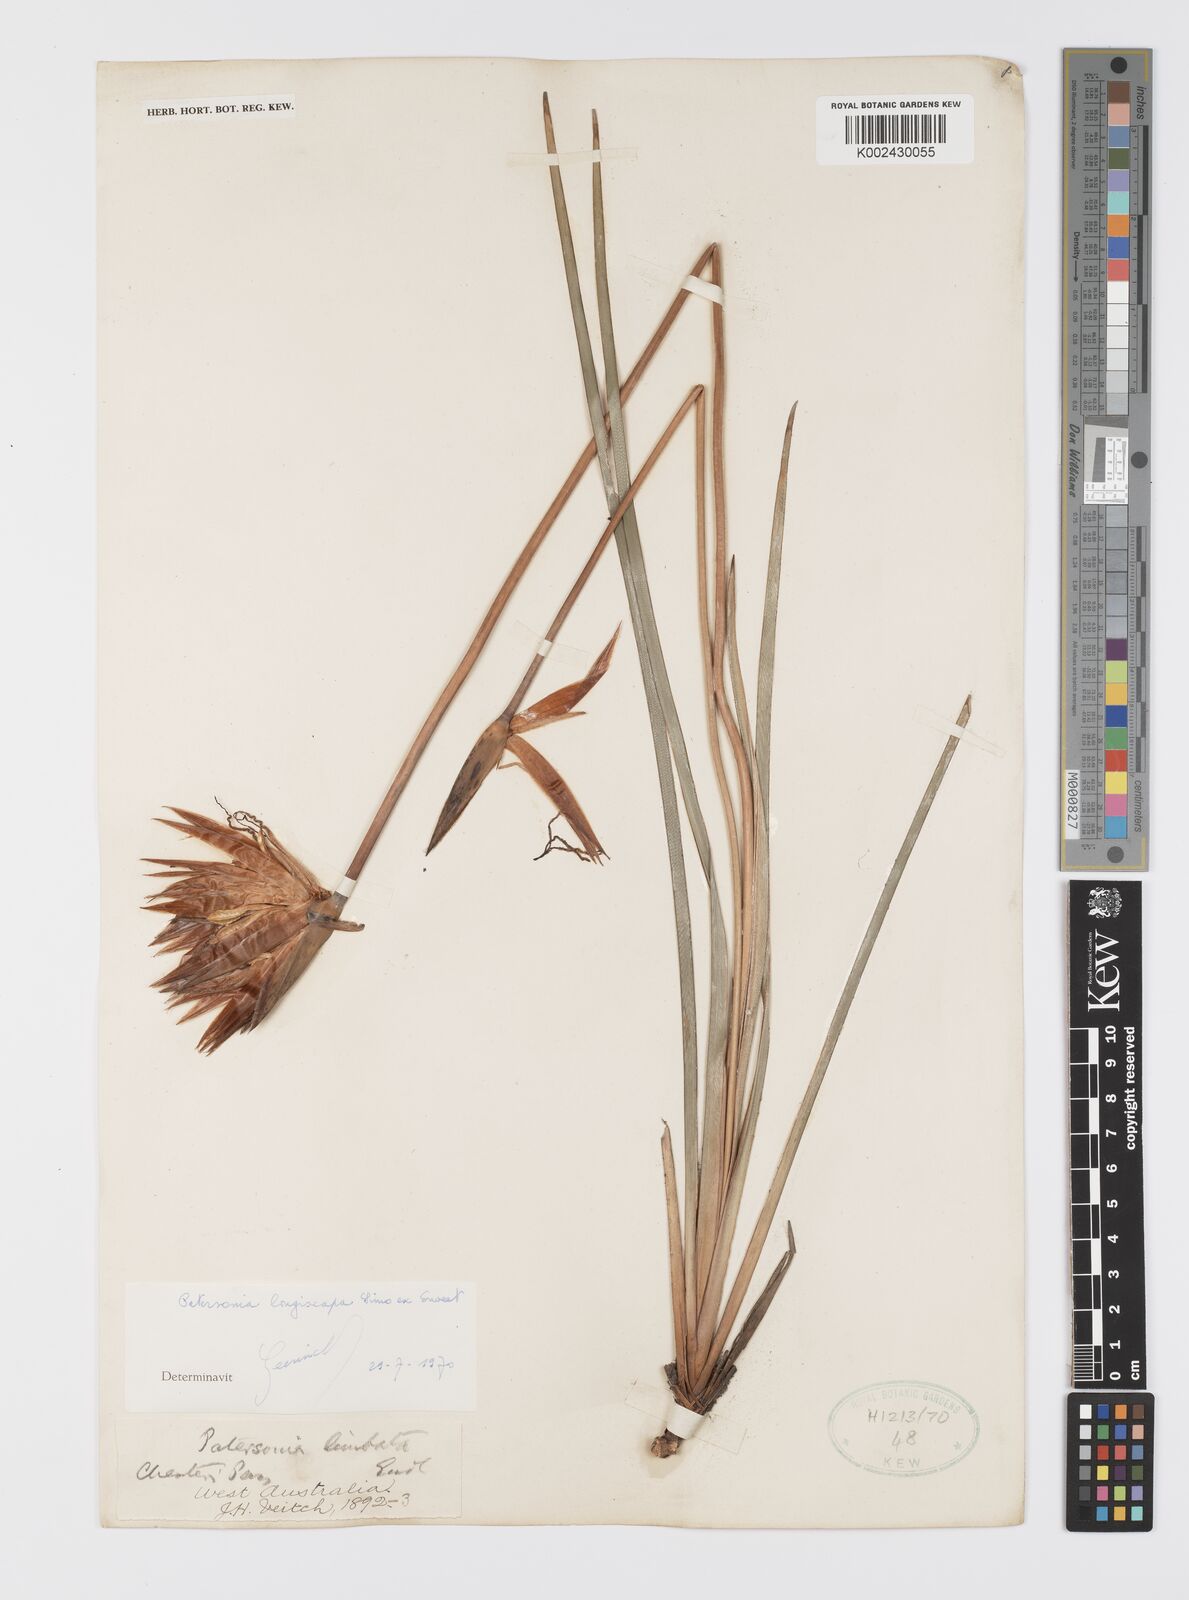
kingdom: Plantae
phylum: Tracheophyta
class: Liliopsida
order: Asparagales
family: Iridaceae
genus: Patersonia
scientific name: Patersonia occidentalis
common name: Long purple-flag
